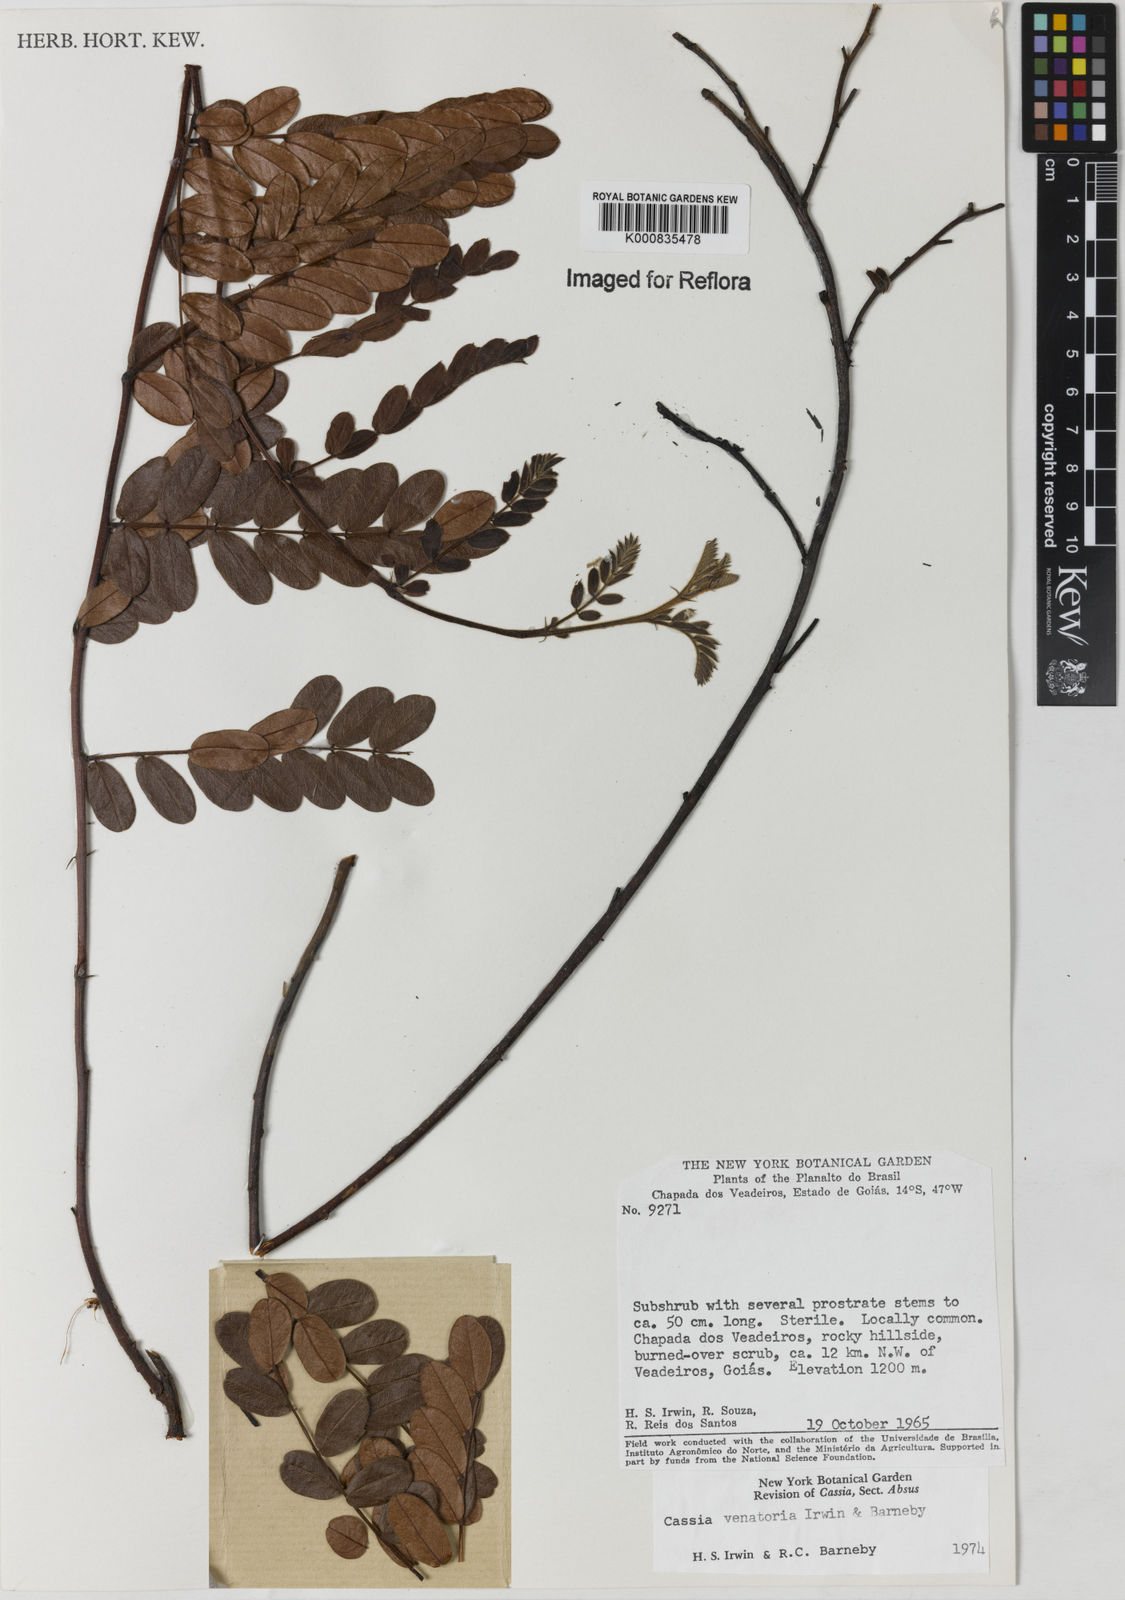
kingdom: Plantae
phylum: Tracheophyta
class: Magnoliopsida
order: Fabales
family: Fabaceae
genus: Chamaecrista
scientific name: Chamaecrista venatoria
